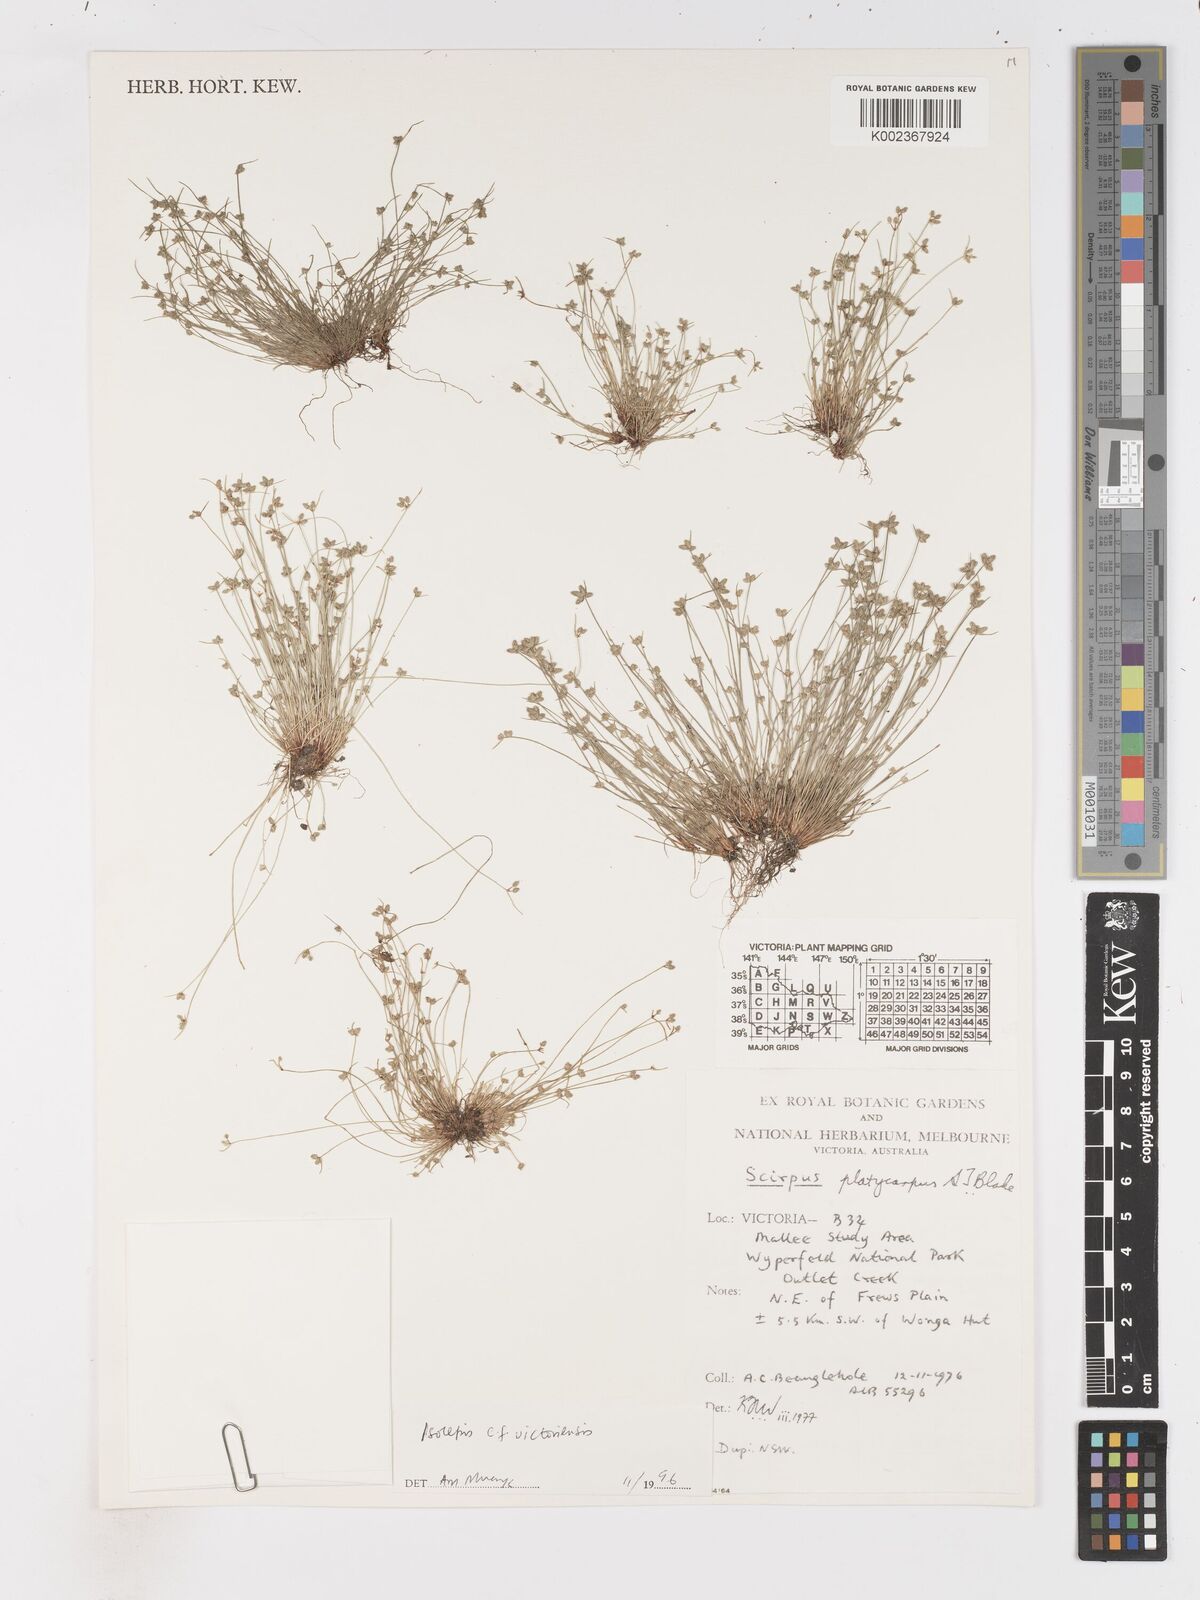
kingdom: Plantae
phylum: Tracheophyta
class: Liliopsida
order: Poales
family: Cyperaceae
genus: Isolepis
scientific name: Isolepis victoriensis
